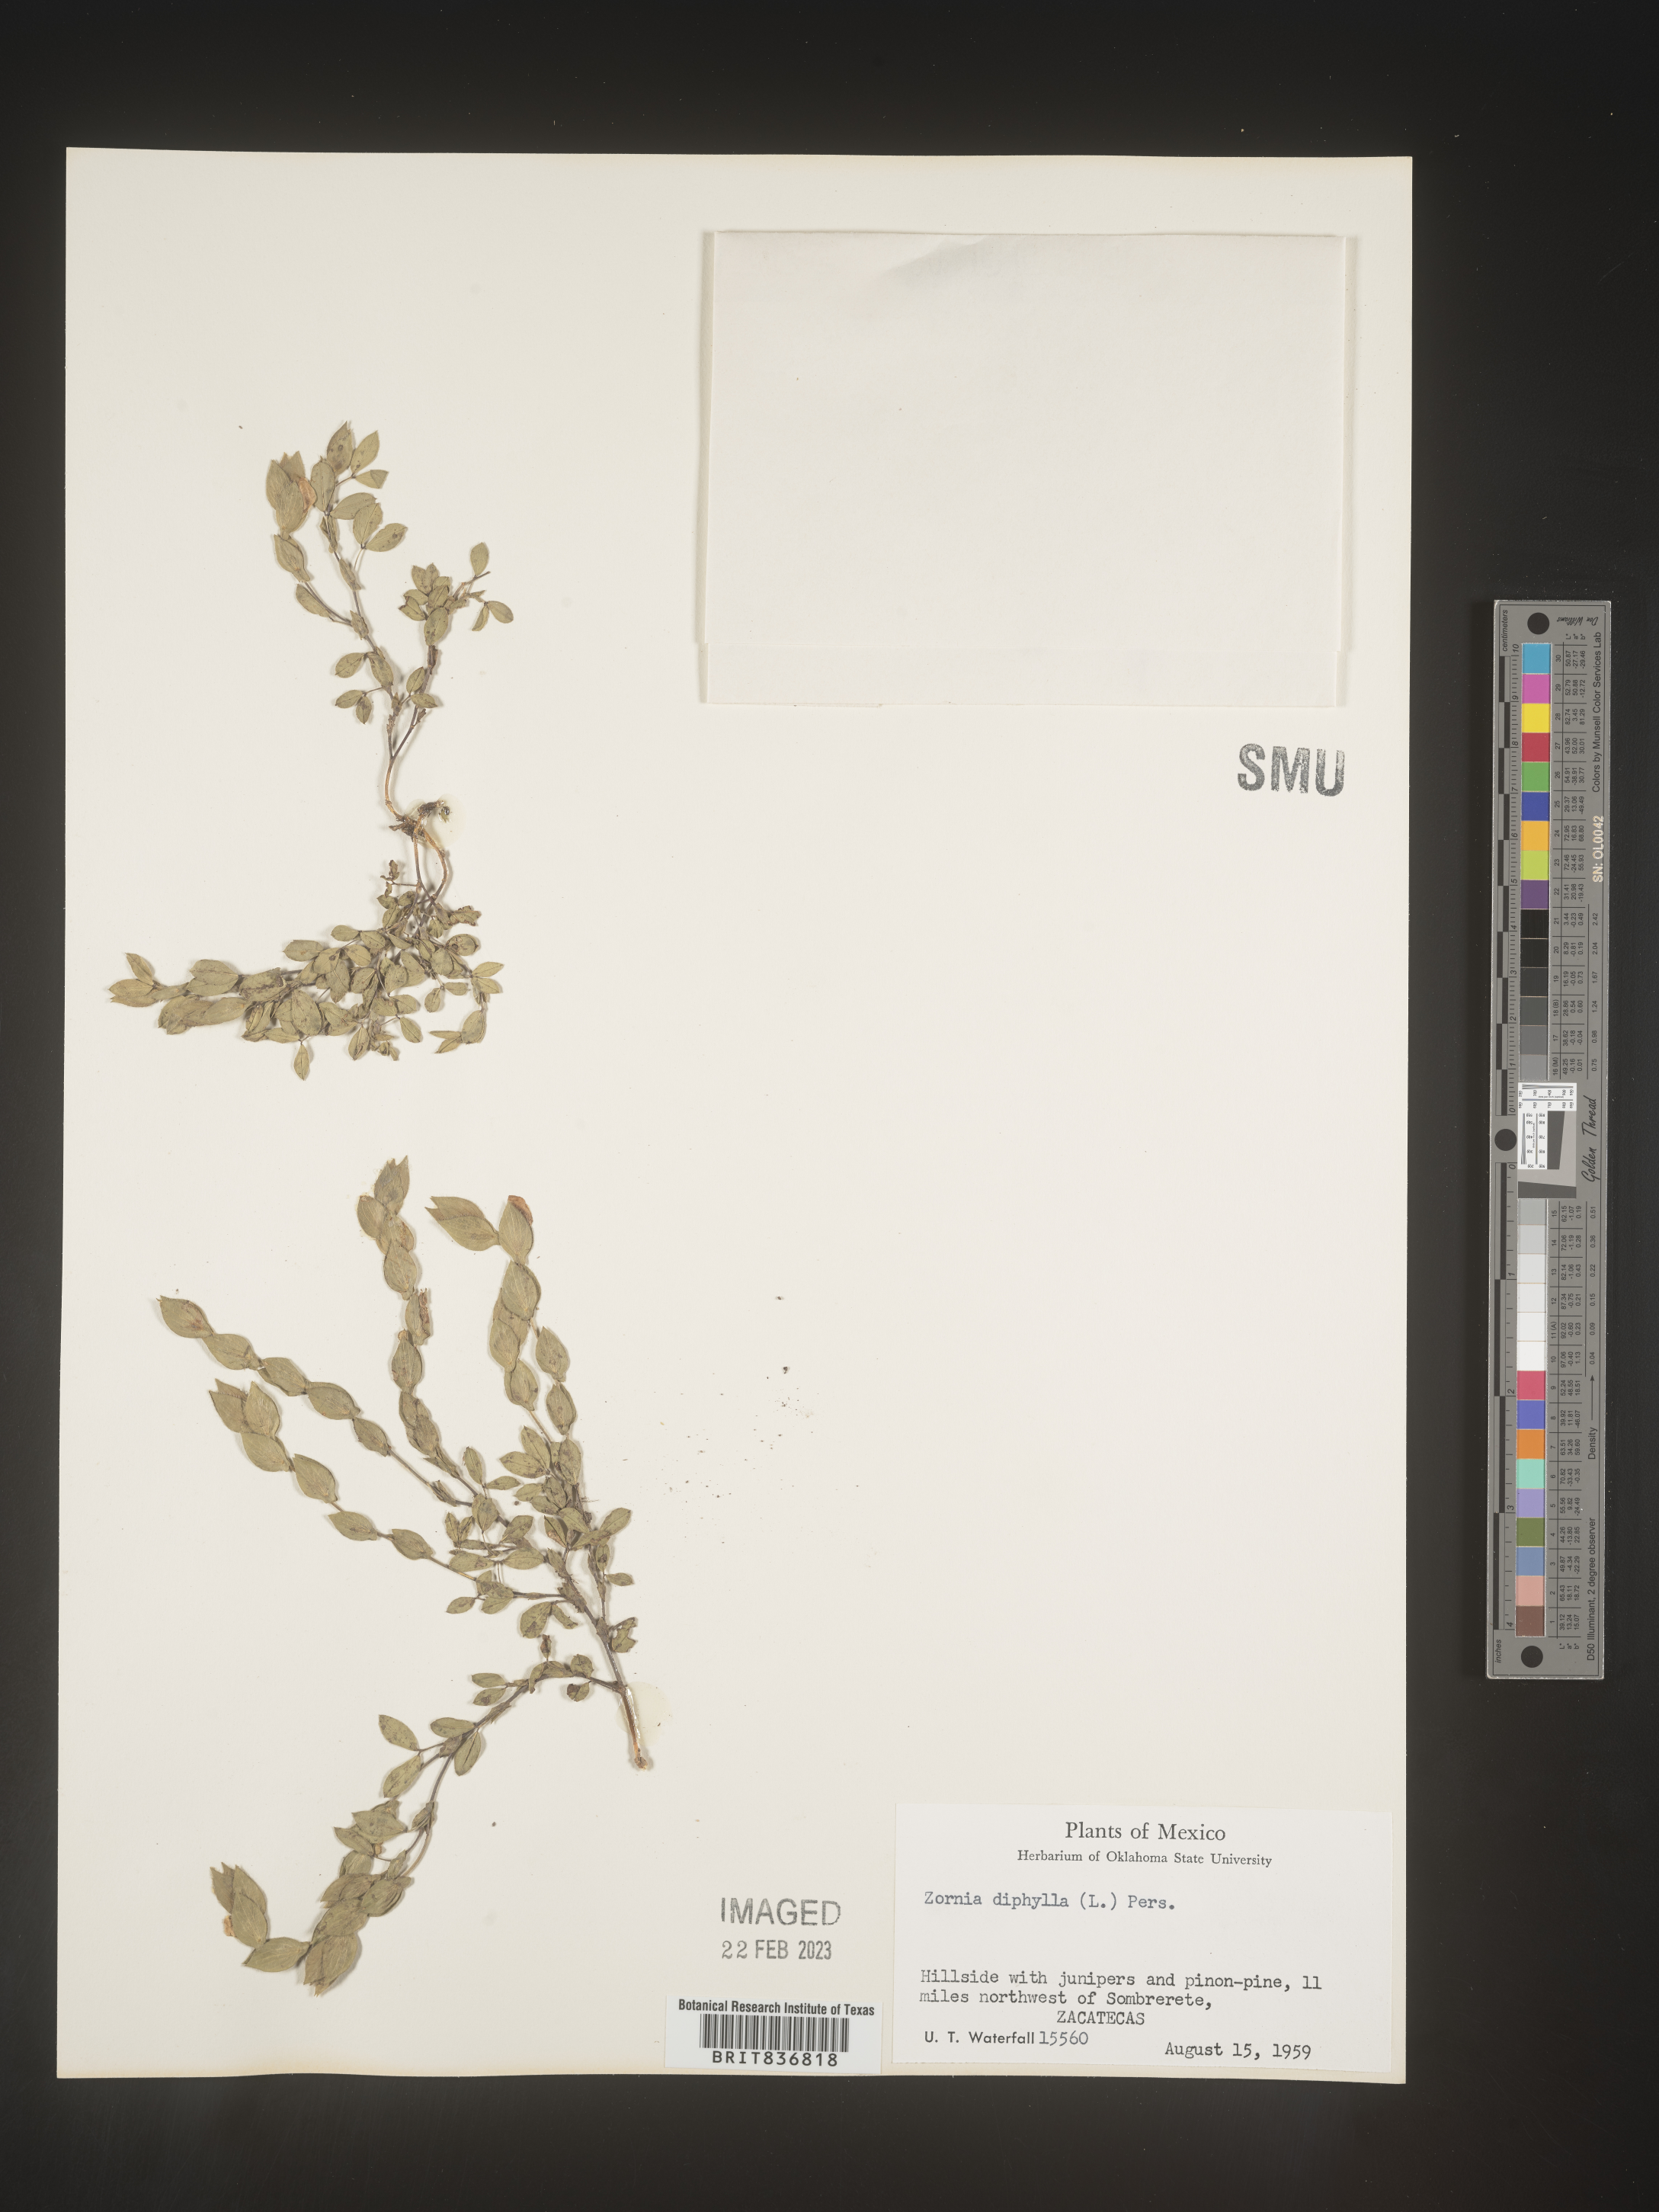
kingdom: Plantae
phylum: Tracheophyta
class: Magnoliopsida
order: Fabales
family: Fabaceae
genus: Zornia
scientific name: Zornia
